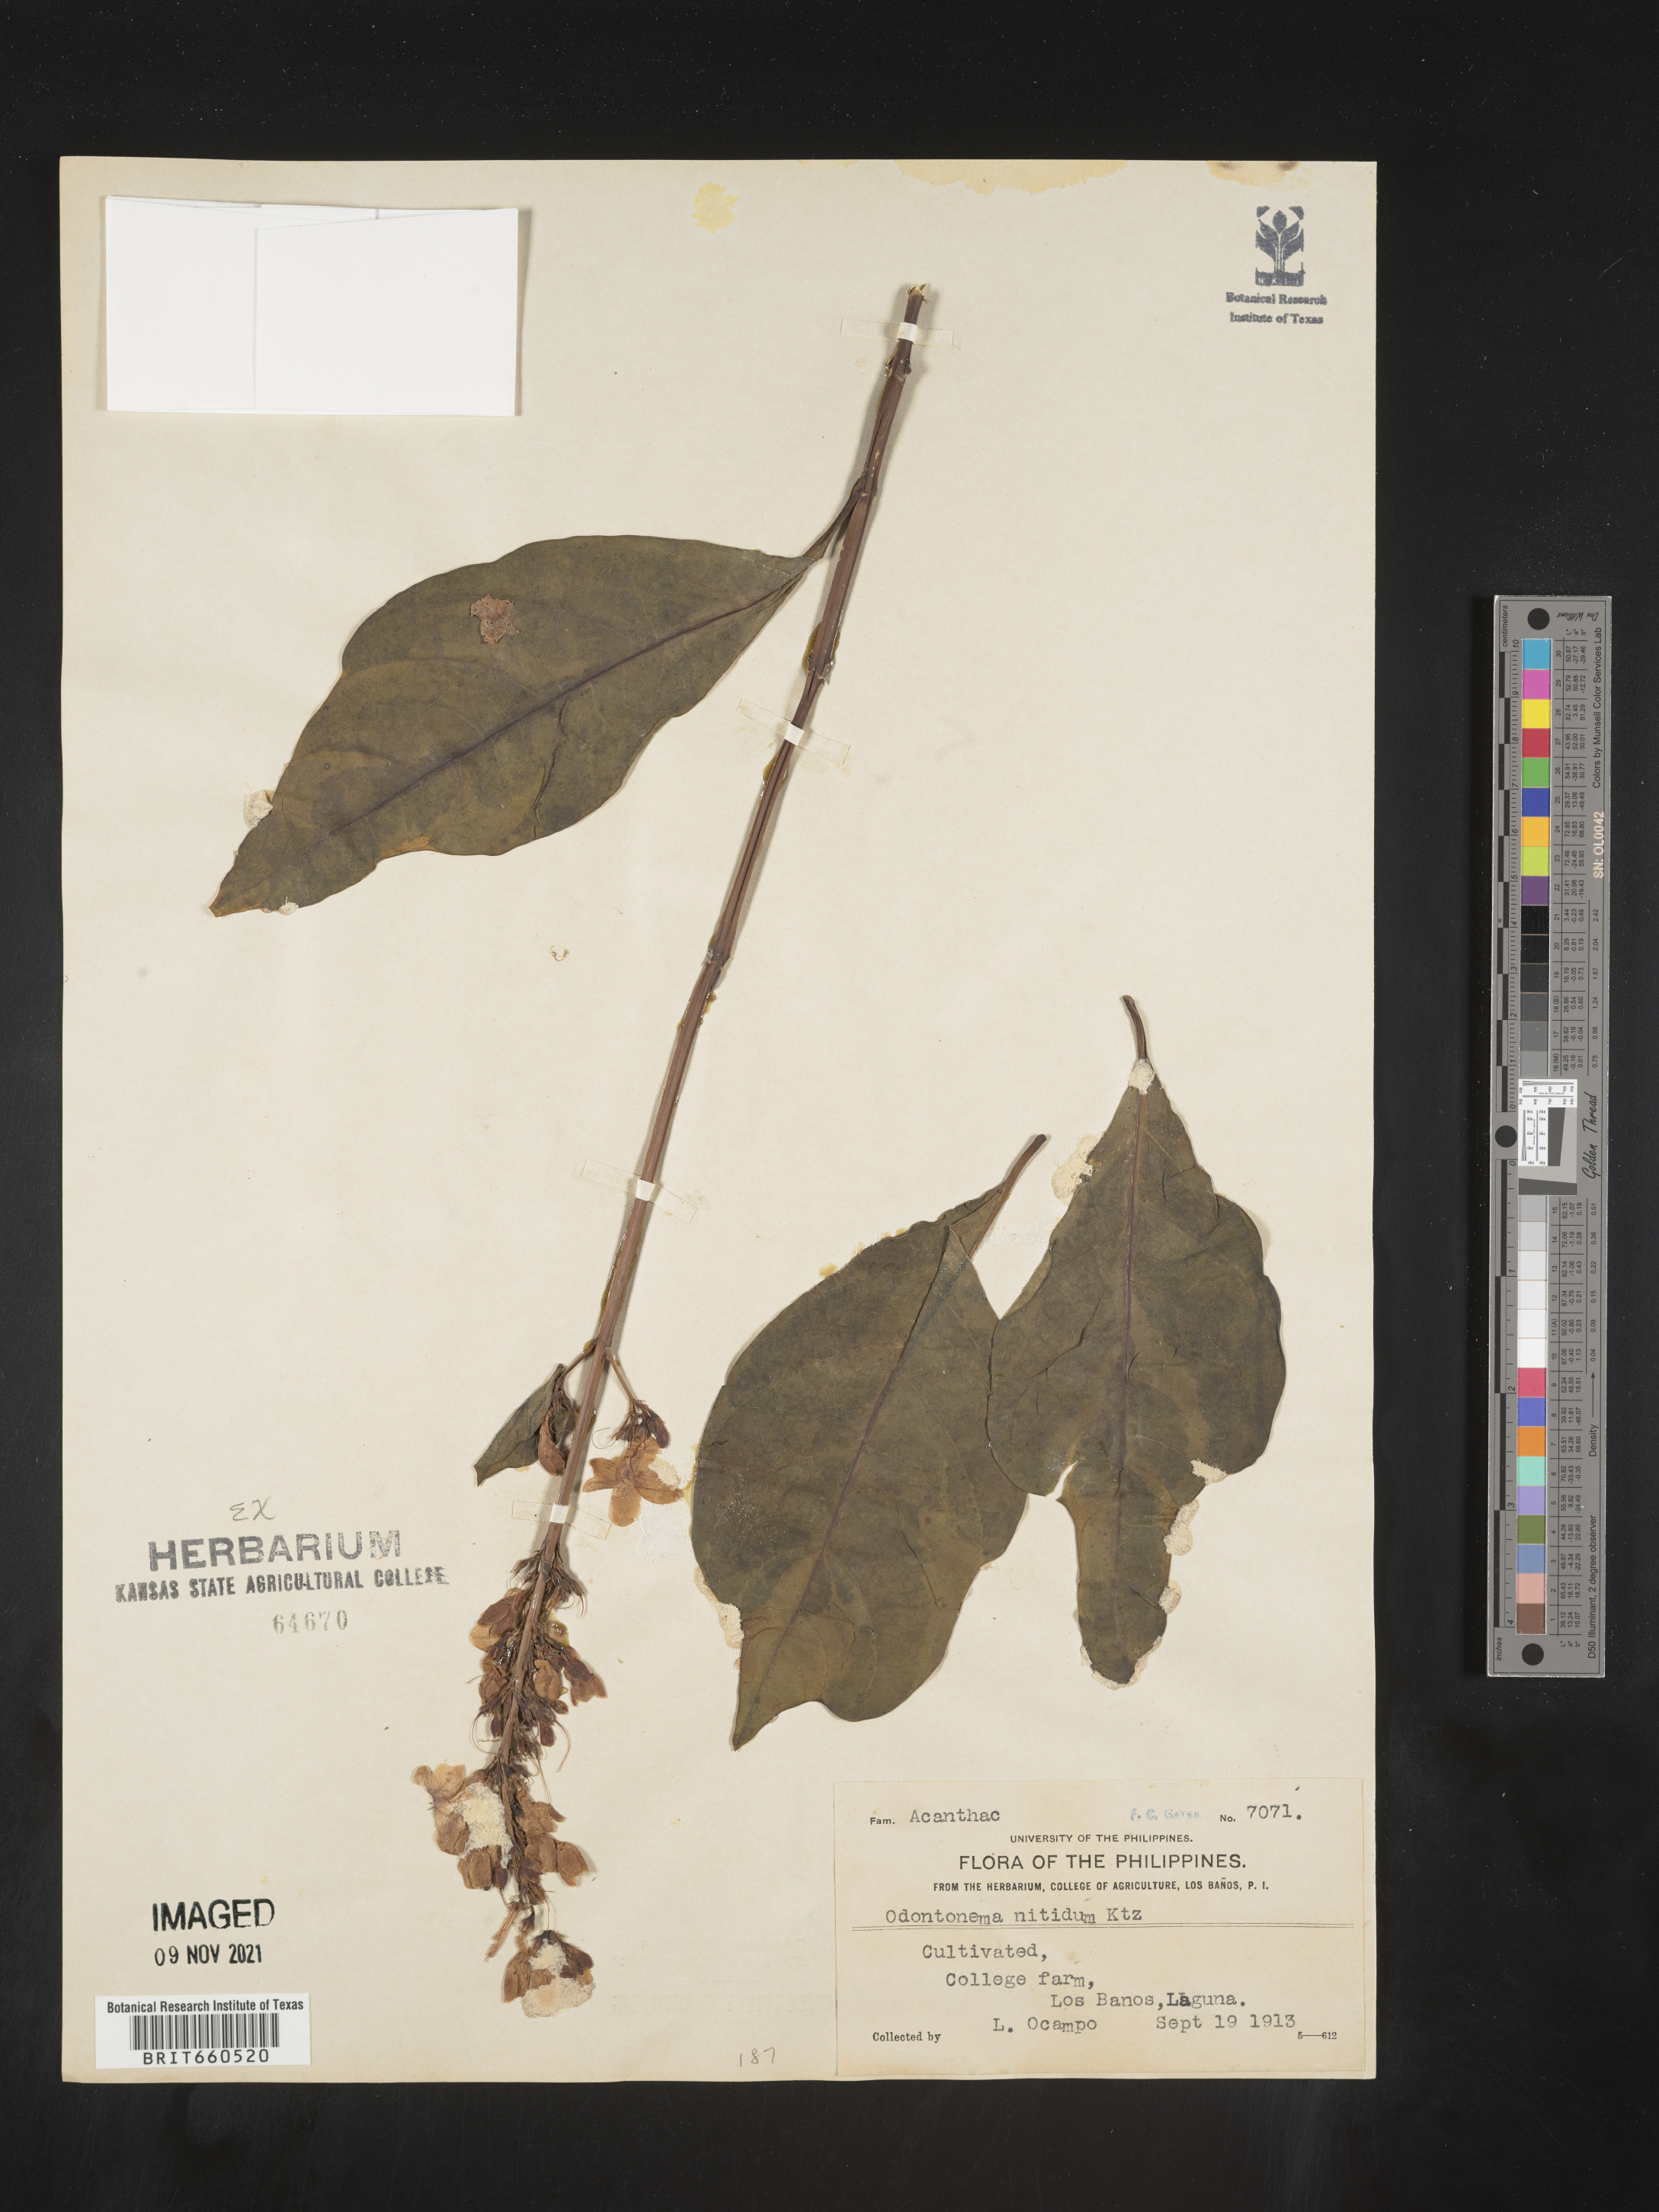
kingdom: Plantae
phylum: Tracheophyta
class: Magnoliopsida
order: Lamiales
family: Acanthaceae
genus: Odontonema
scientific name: Odontonema
